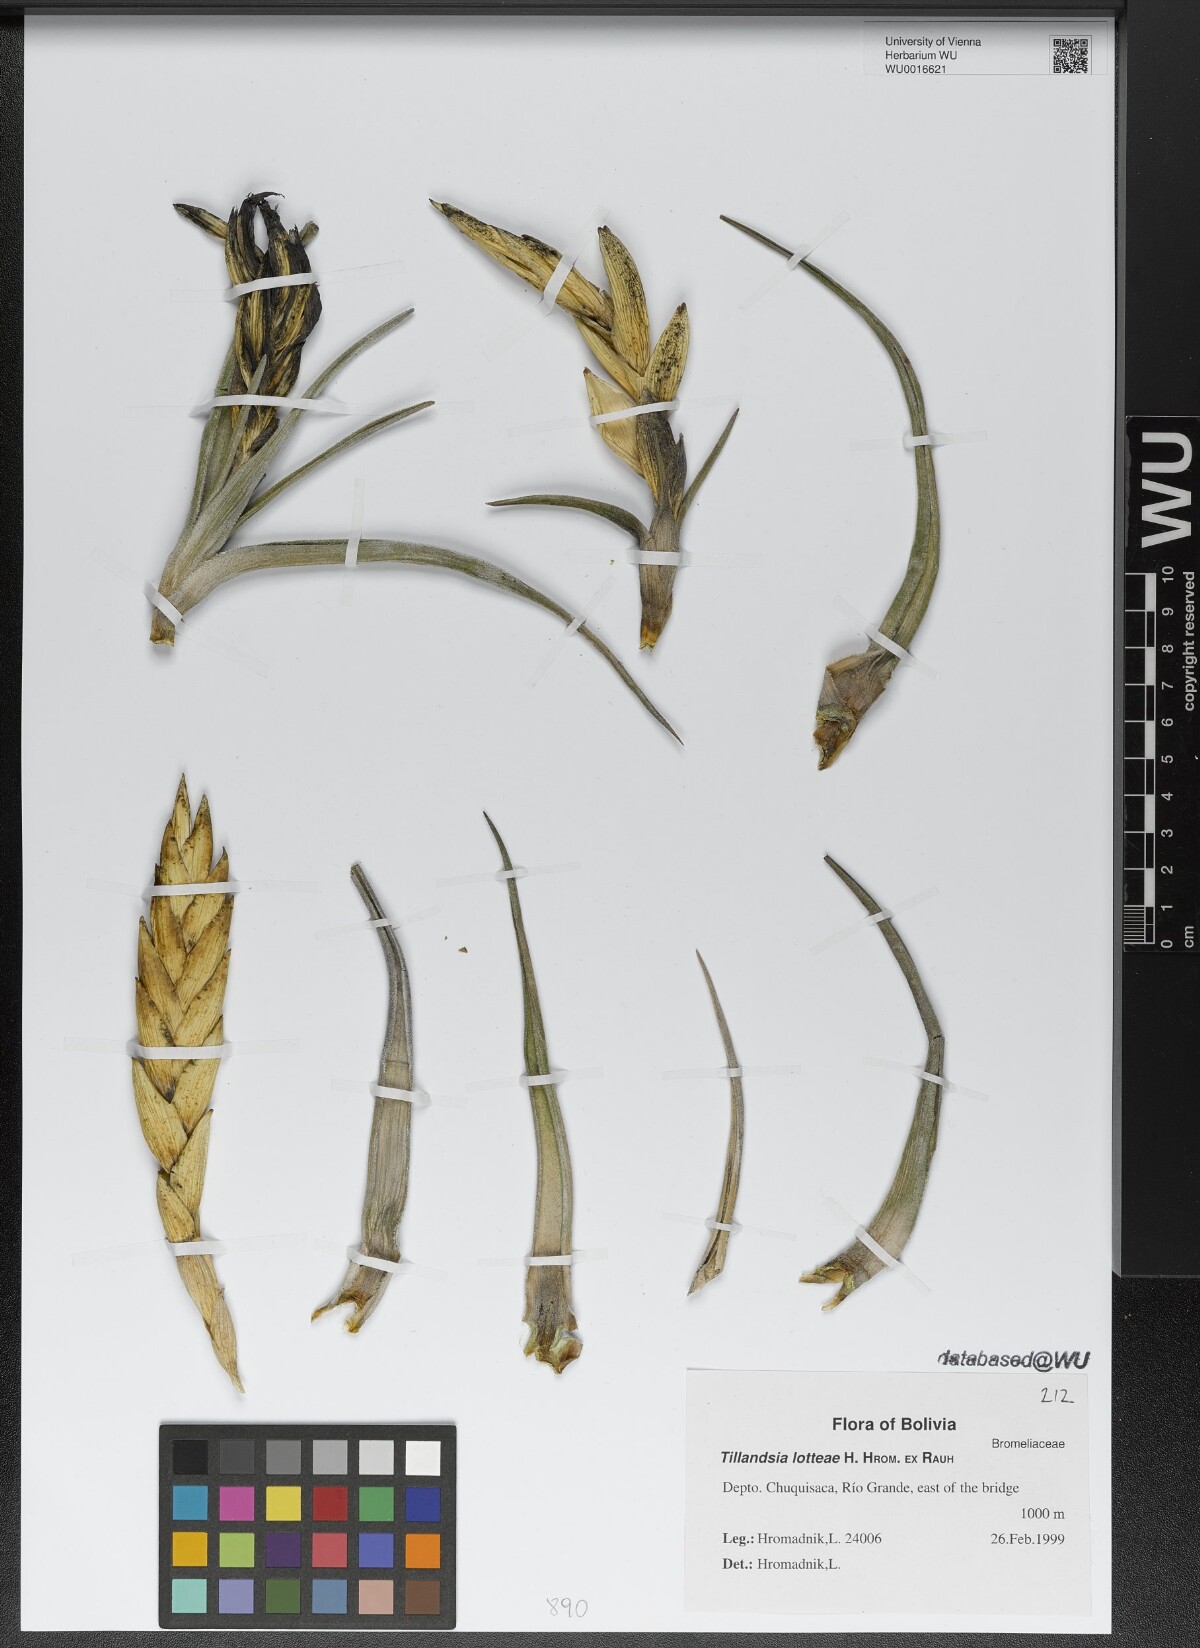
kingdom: Plantae
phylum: Tracheophyta
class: Liliopsida
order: Poales
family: Bromeliaceae
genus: Tillandsia
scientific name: Tillandsia lotteae
